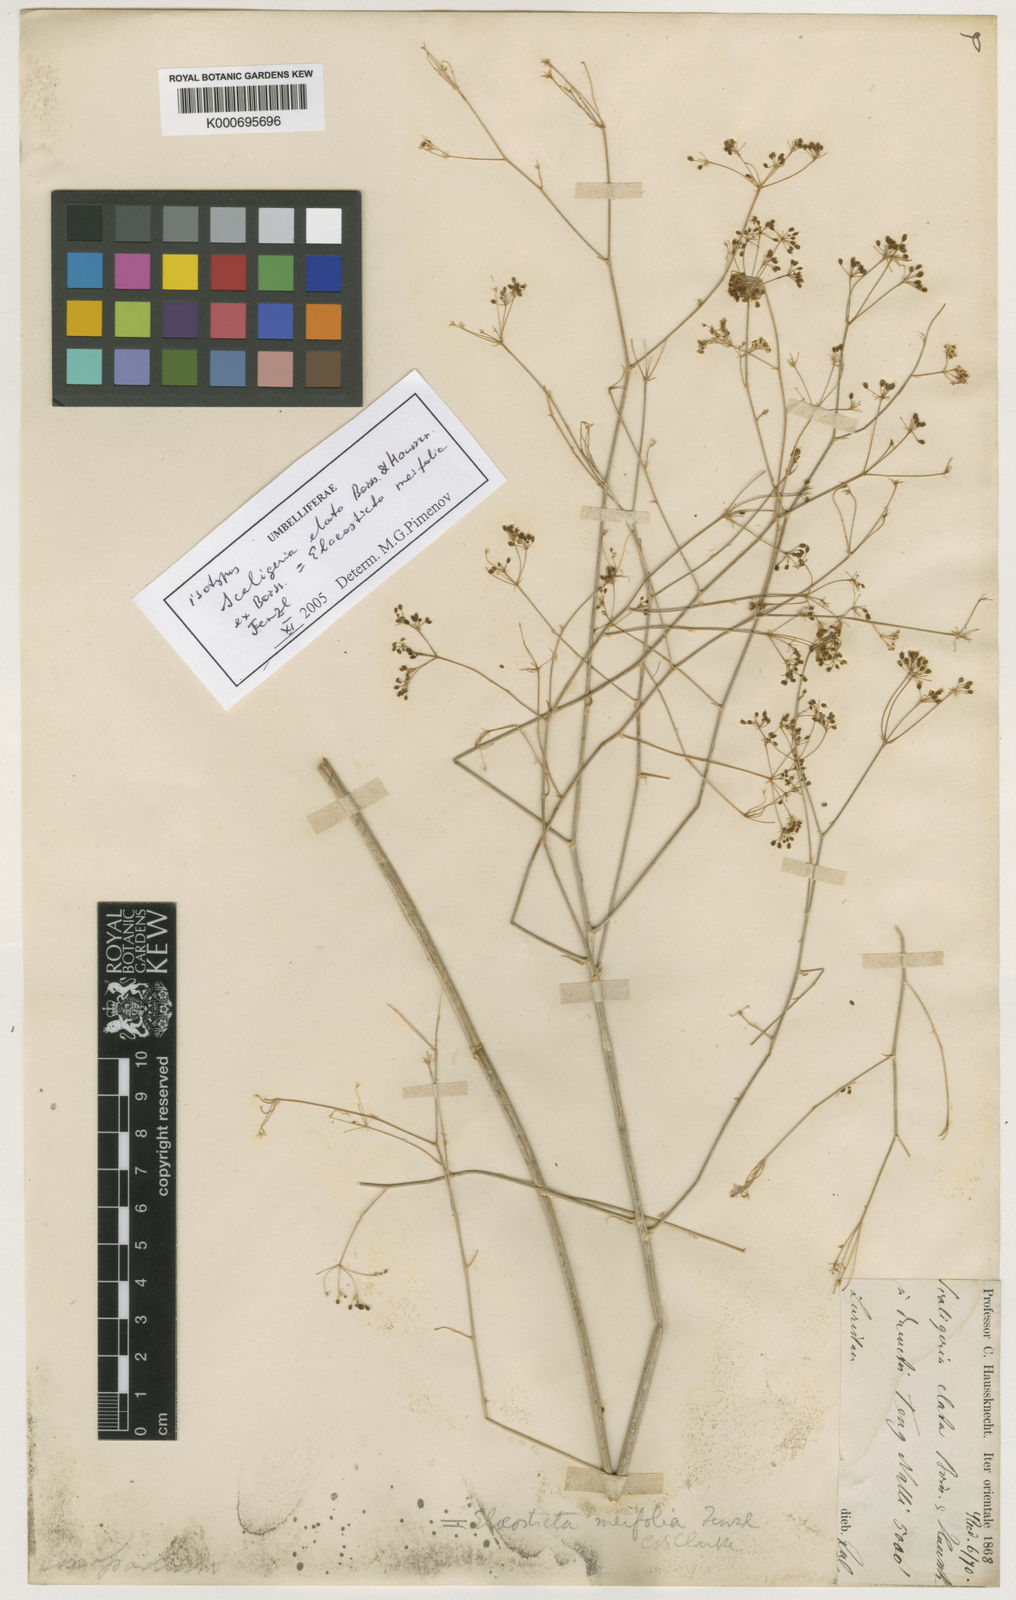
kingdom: Plantae
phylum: Tracheophyta
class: Magnoliopsida
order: Apiales
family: Apiaceae
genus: Elaeosticta
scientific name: Elaeosticta meifolia
